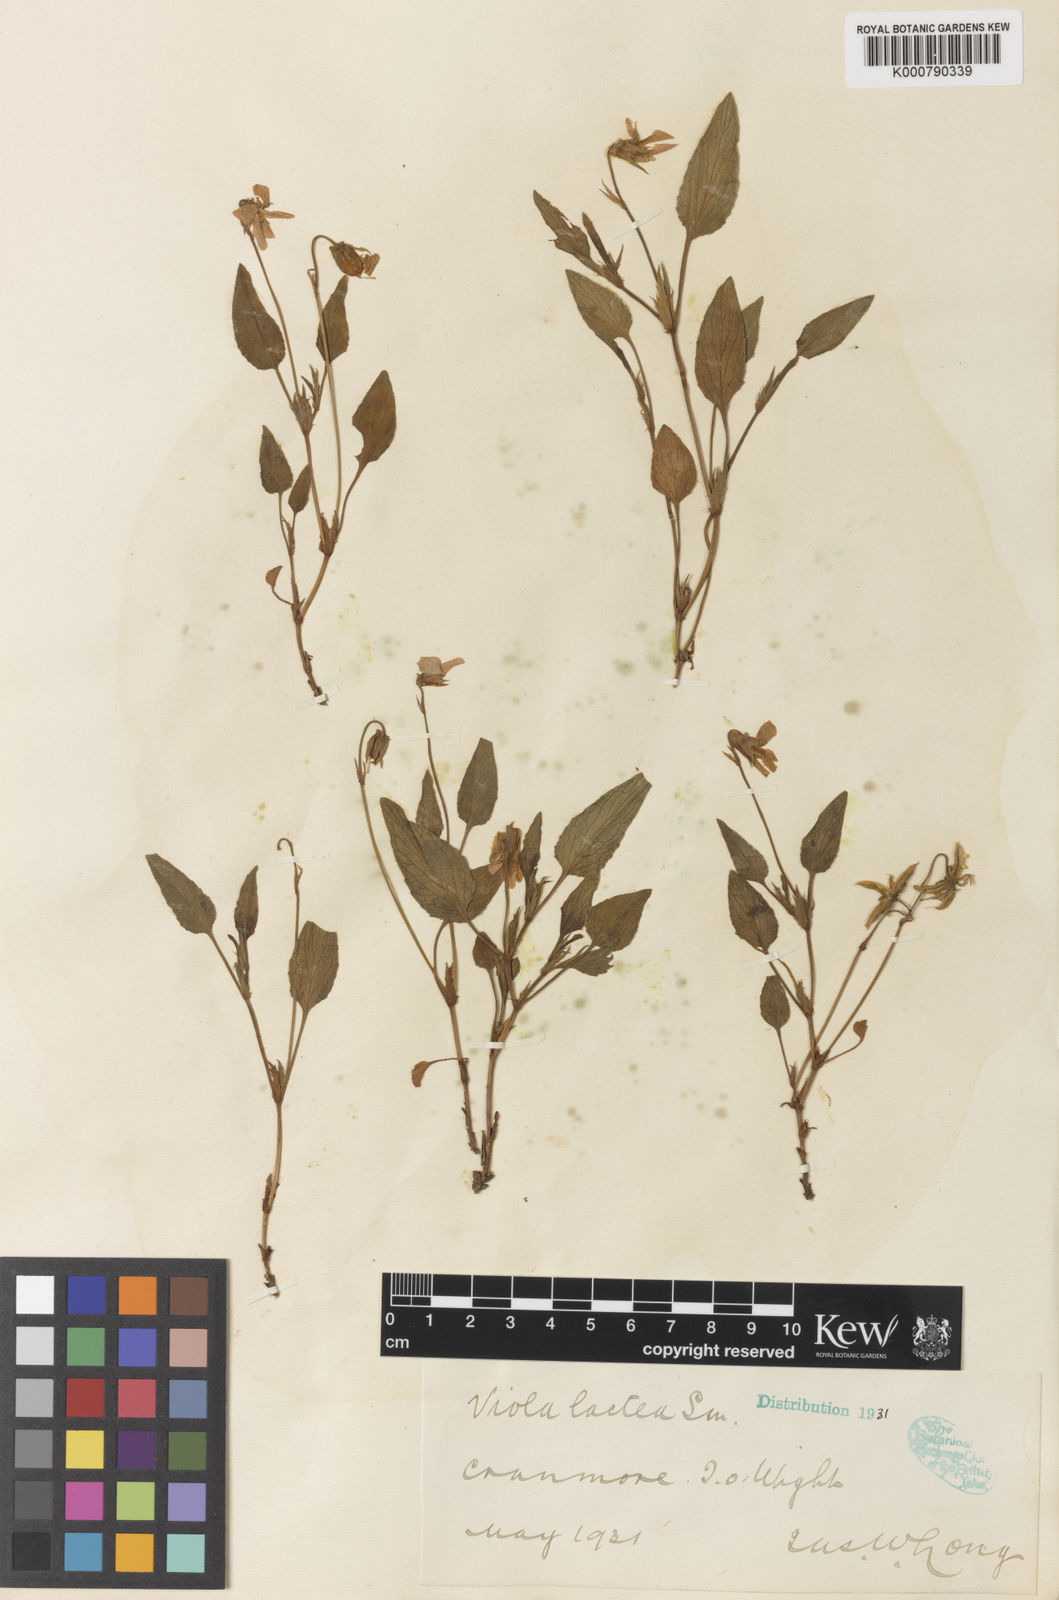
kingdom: Plantae
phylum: Tracheophyta
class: Magnoliopsida
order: Malpighiales
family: Violaceae
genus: Viola
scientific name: Viola lactea
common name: Pale dog-violet
